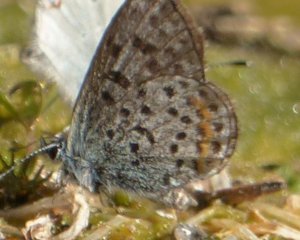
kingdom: Animalia
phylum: Arthropoda
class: Insecta
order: Lepidoptera
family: Lycaenidae
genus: Euphilotes
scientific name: Euphilotes enoptes
